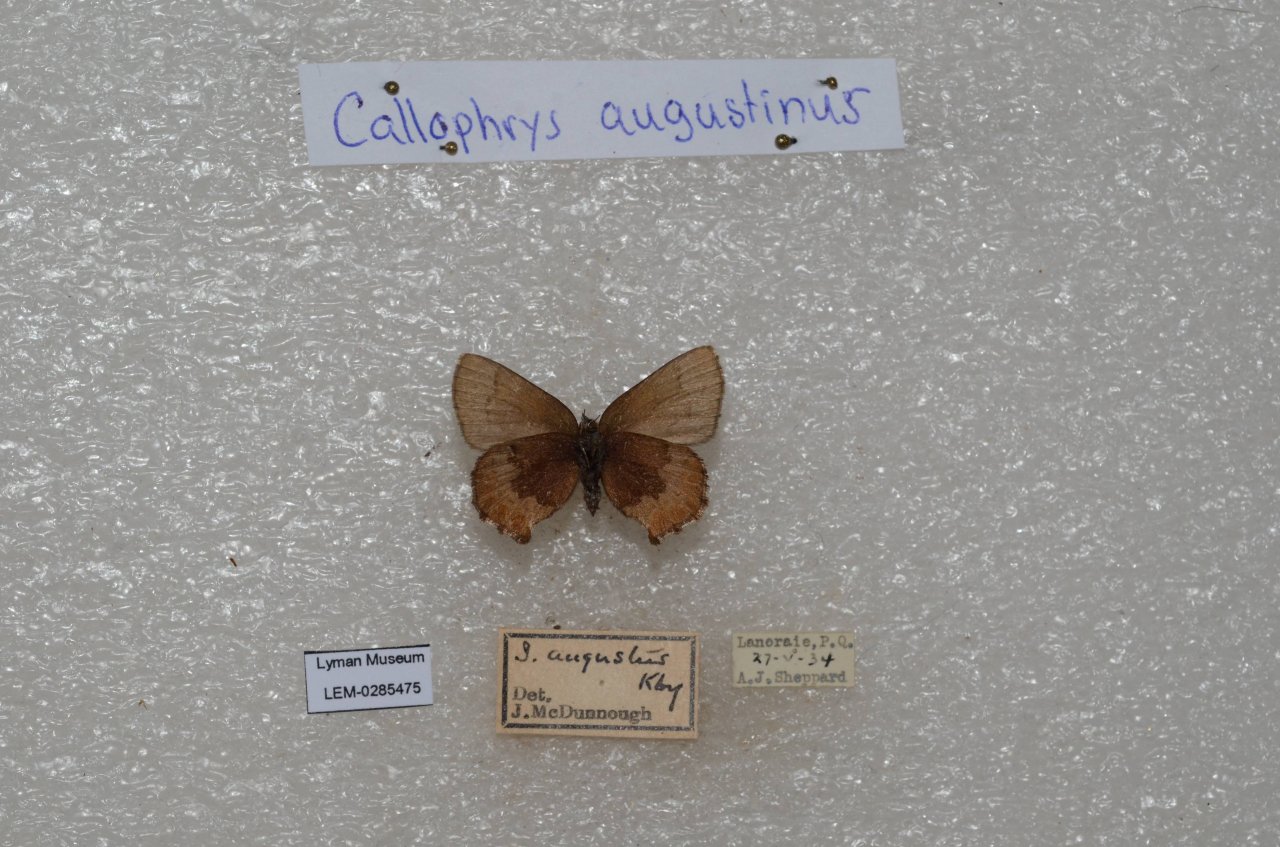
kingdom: Animalia
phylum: Arthropoda
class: Insecta
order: Lepidoptera
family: Lycaenidae
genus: Incisalia
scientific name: Incisalia irioides
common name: Brown Elfin
